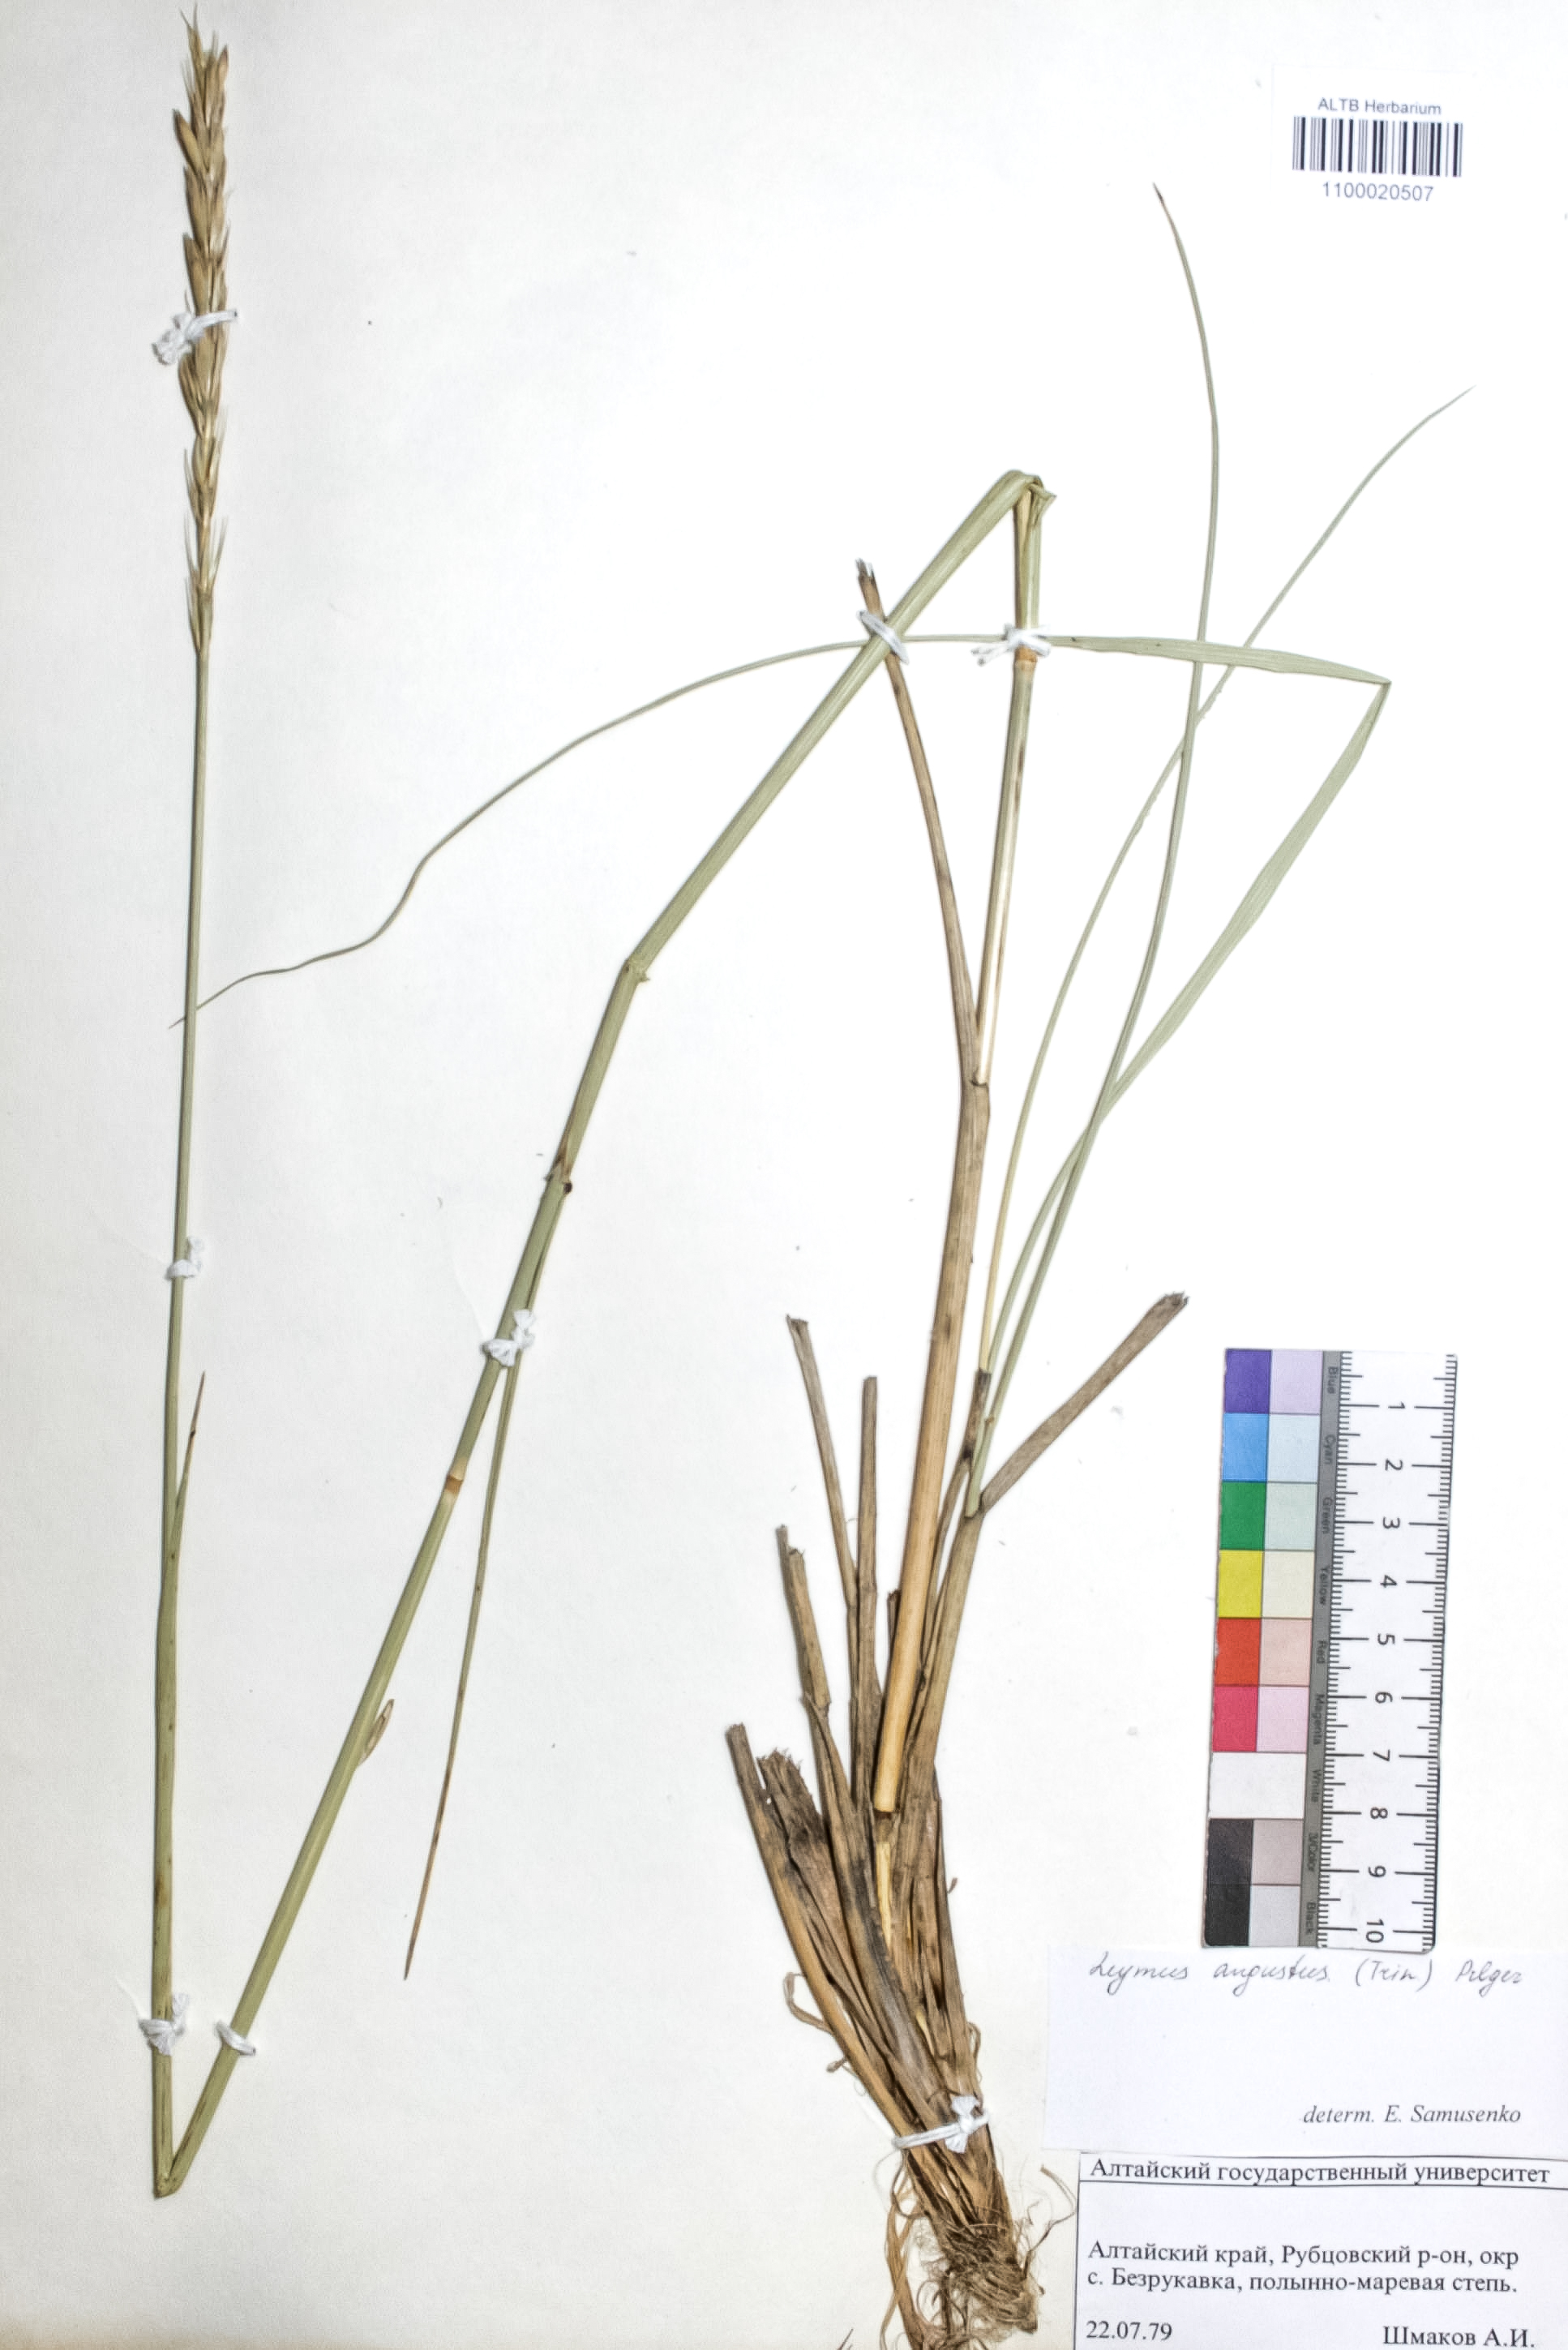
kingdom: Plantae
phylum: Tracheophyta
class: Liliopsida
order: Poales
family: Poaceae
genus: Leymus
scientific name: Leymus angustus
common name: Altai wildrye
